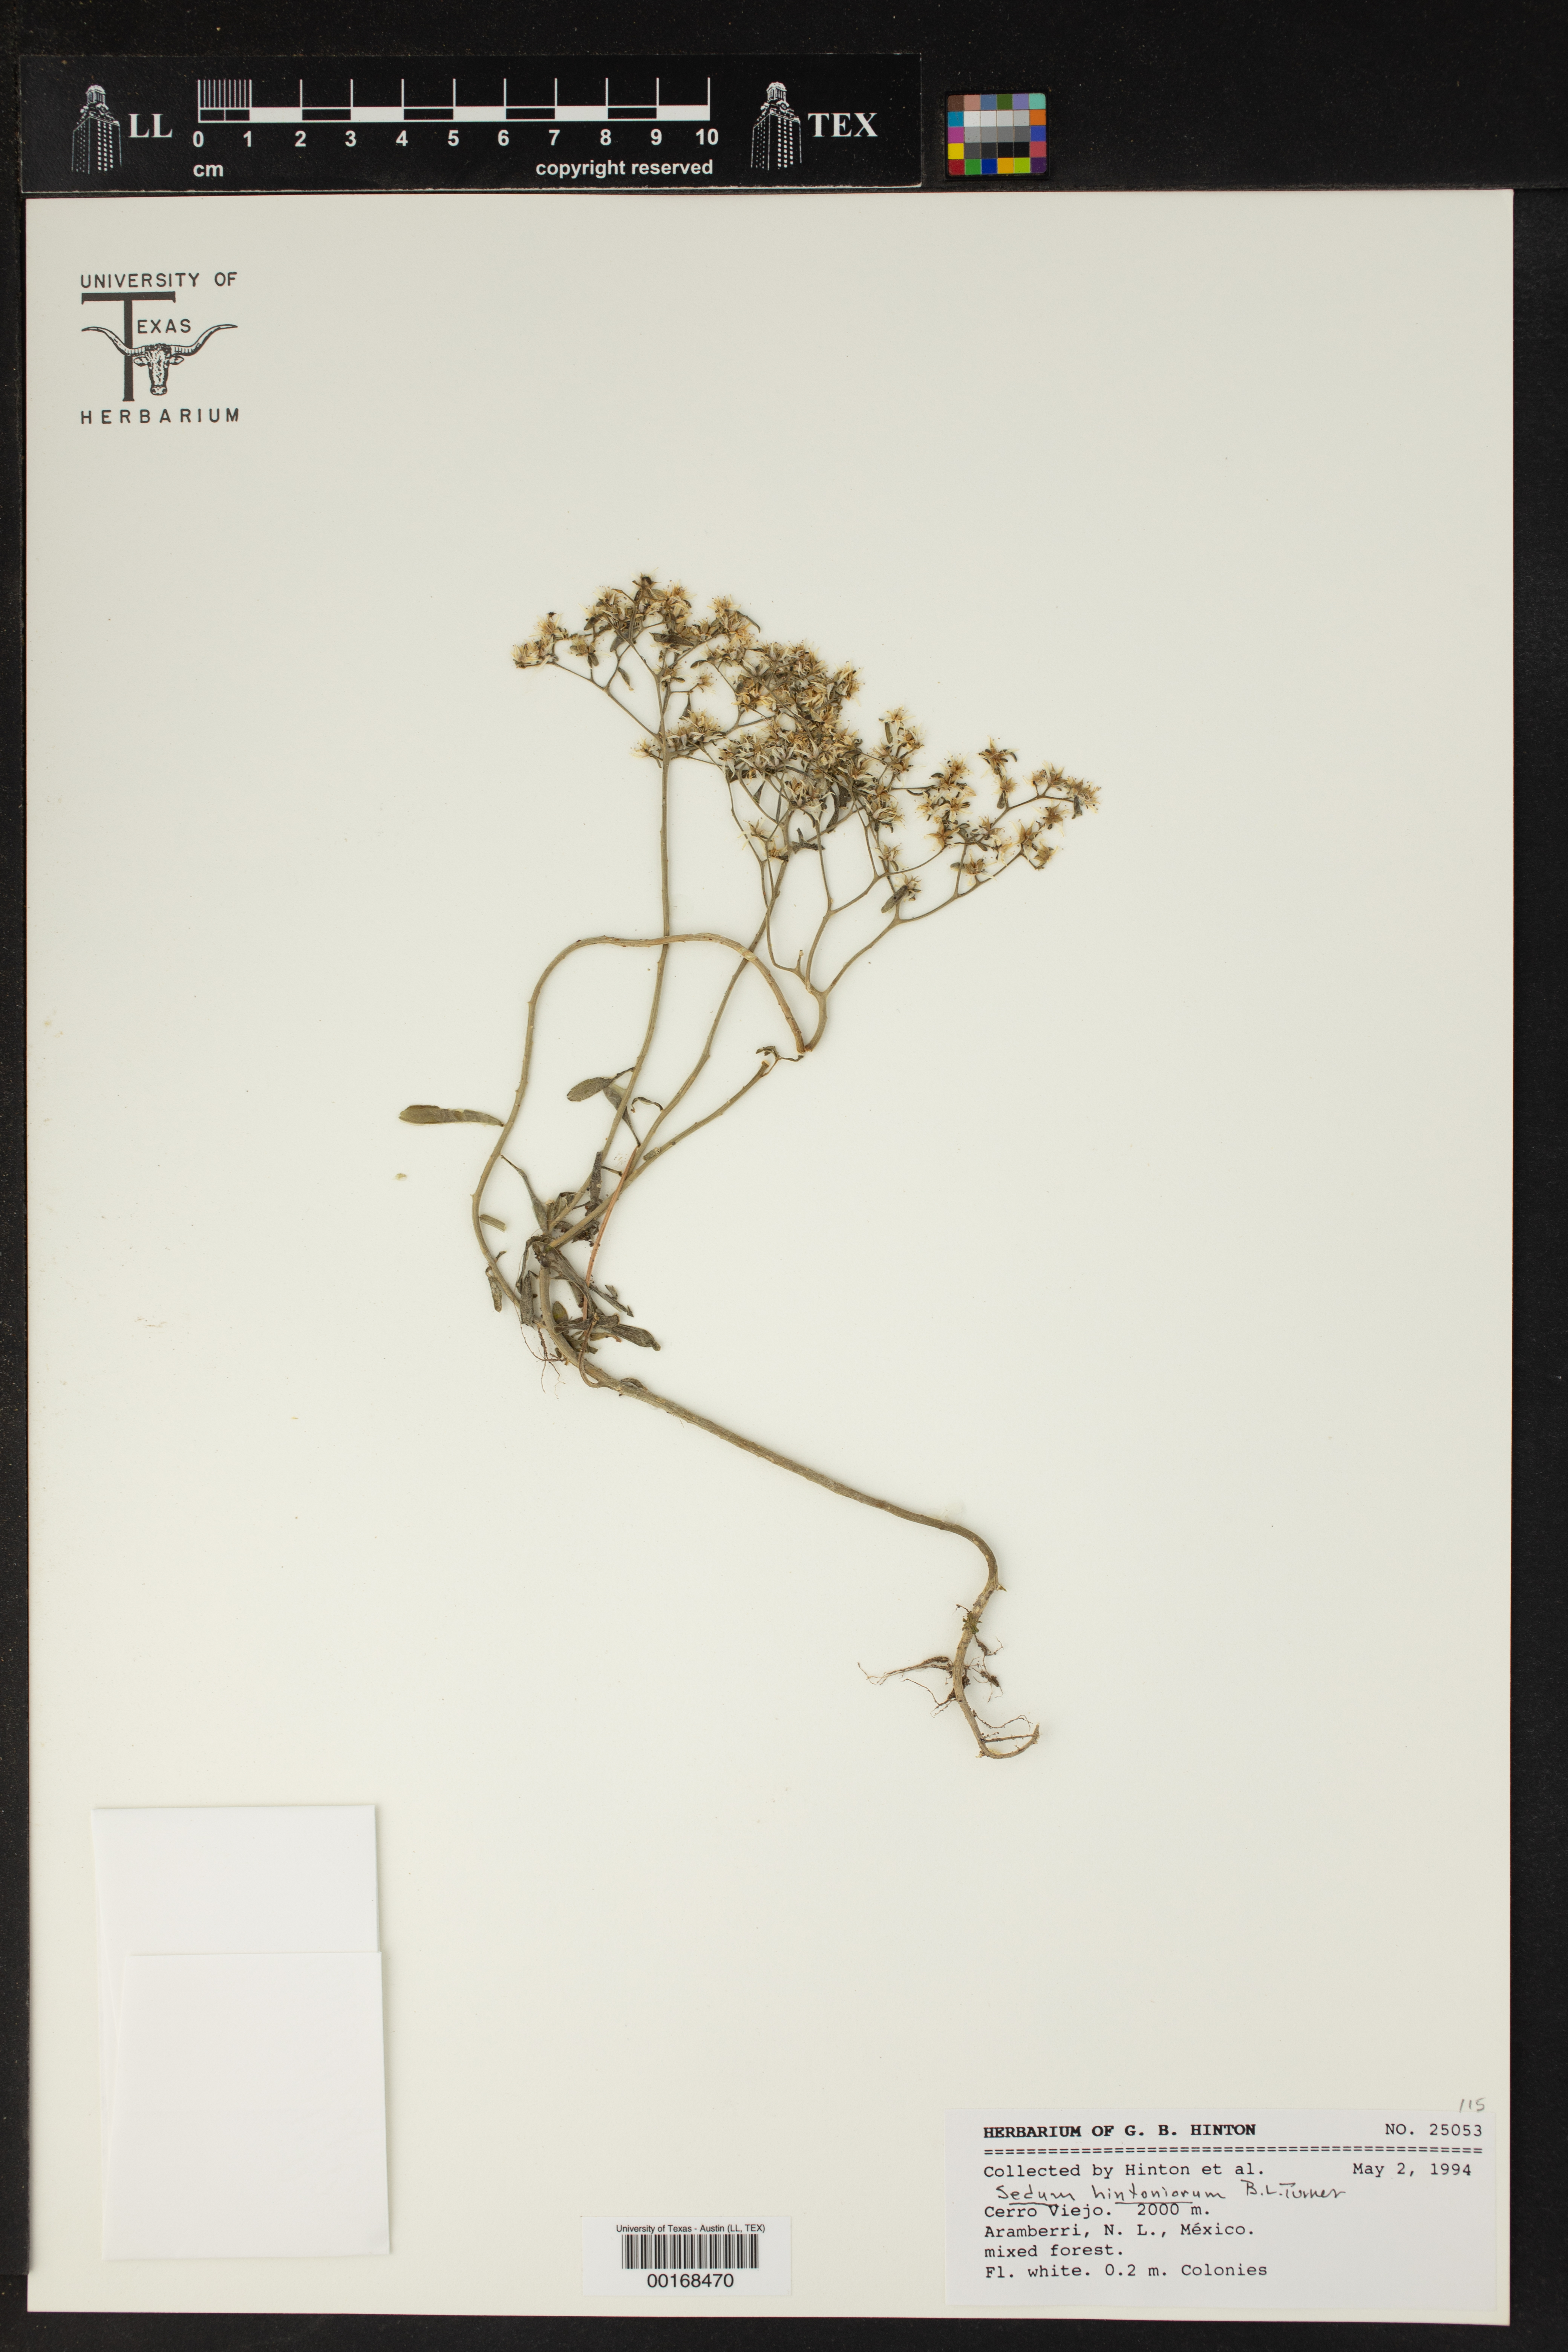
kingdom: Plantae
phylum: Tracheophyta
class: Magnoliopsida
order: Saxifragales
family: Crassulaceae
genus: Sedum
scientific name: Sedum hintoniorum
